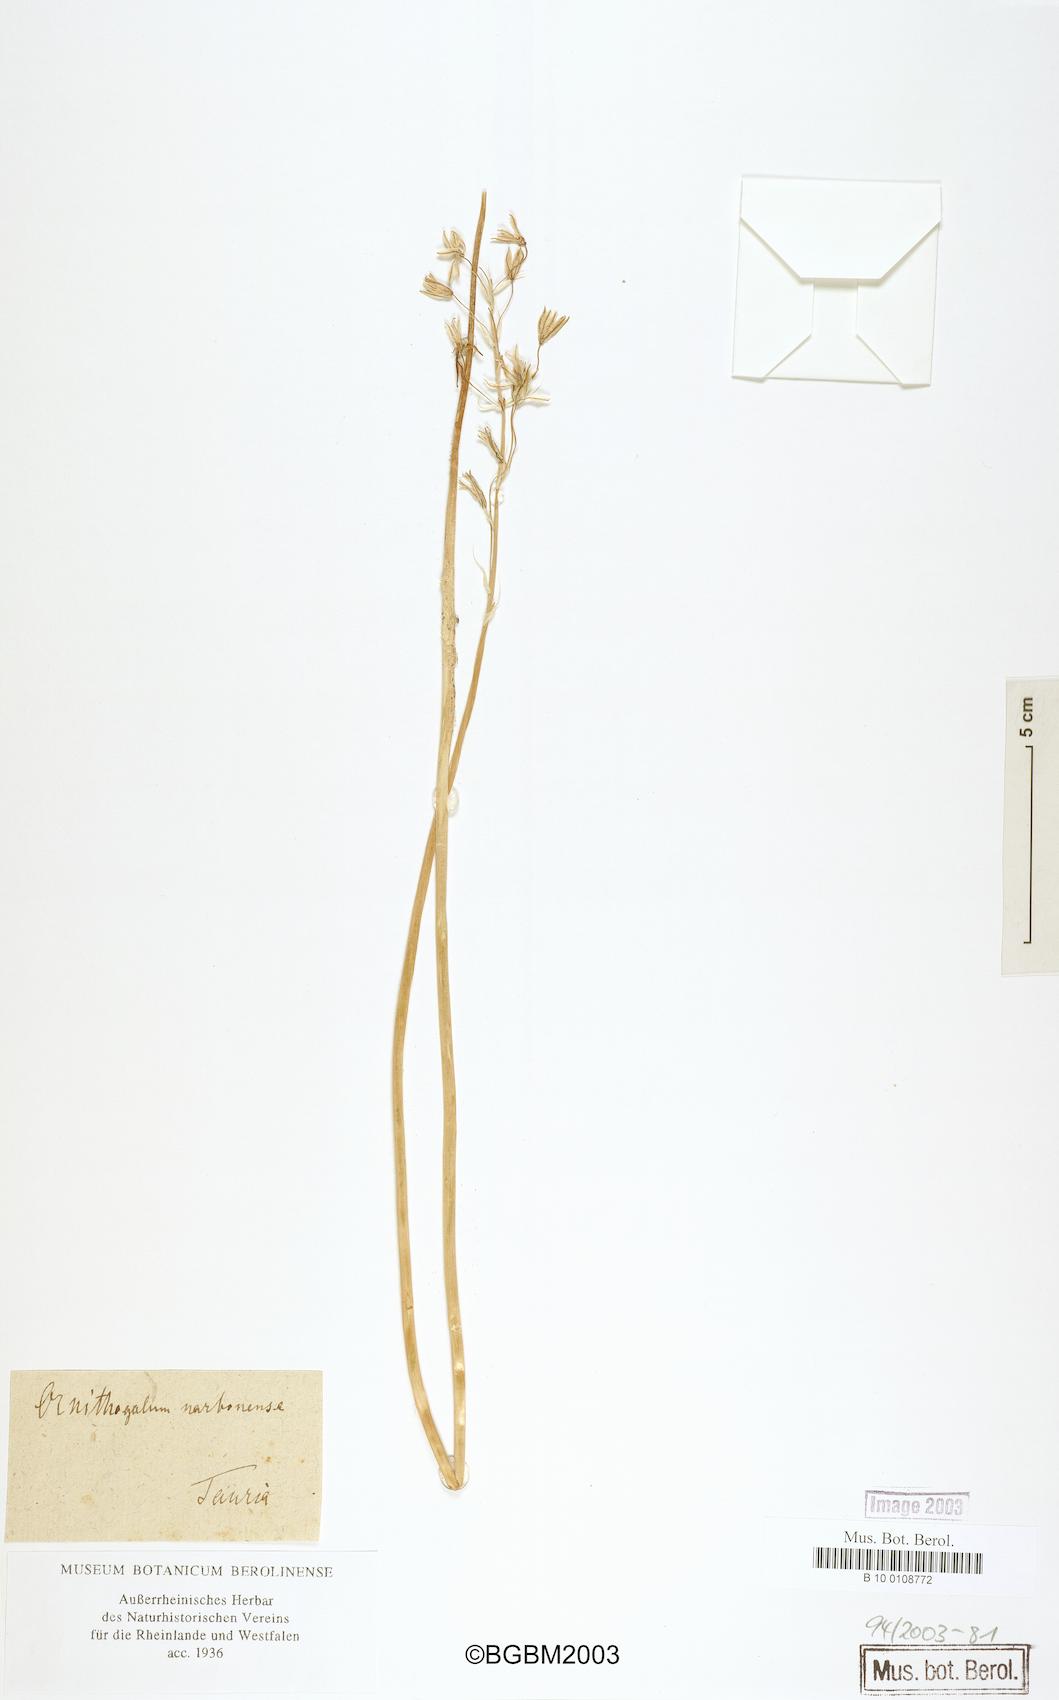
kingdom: Plantae
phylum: Tracheophyta
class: Liliopsida
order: Asparagales
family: Asparagaceae
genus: Ornithogalum
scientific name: Ornithogalum narbonense
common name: Bath-asparagus
